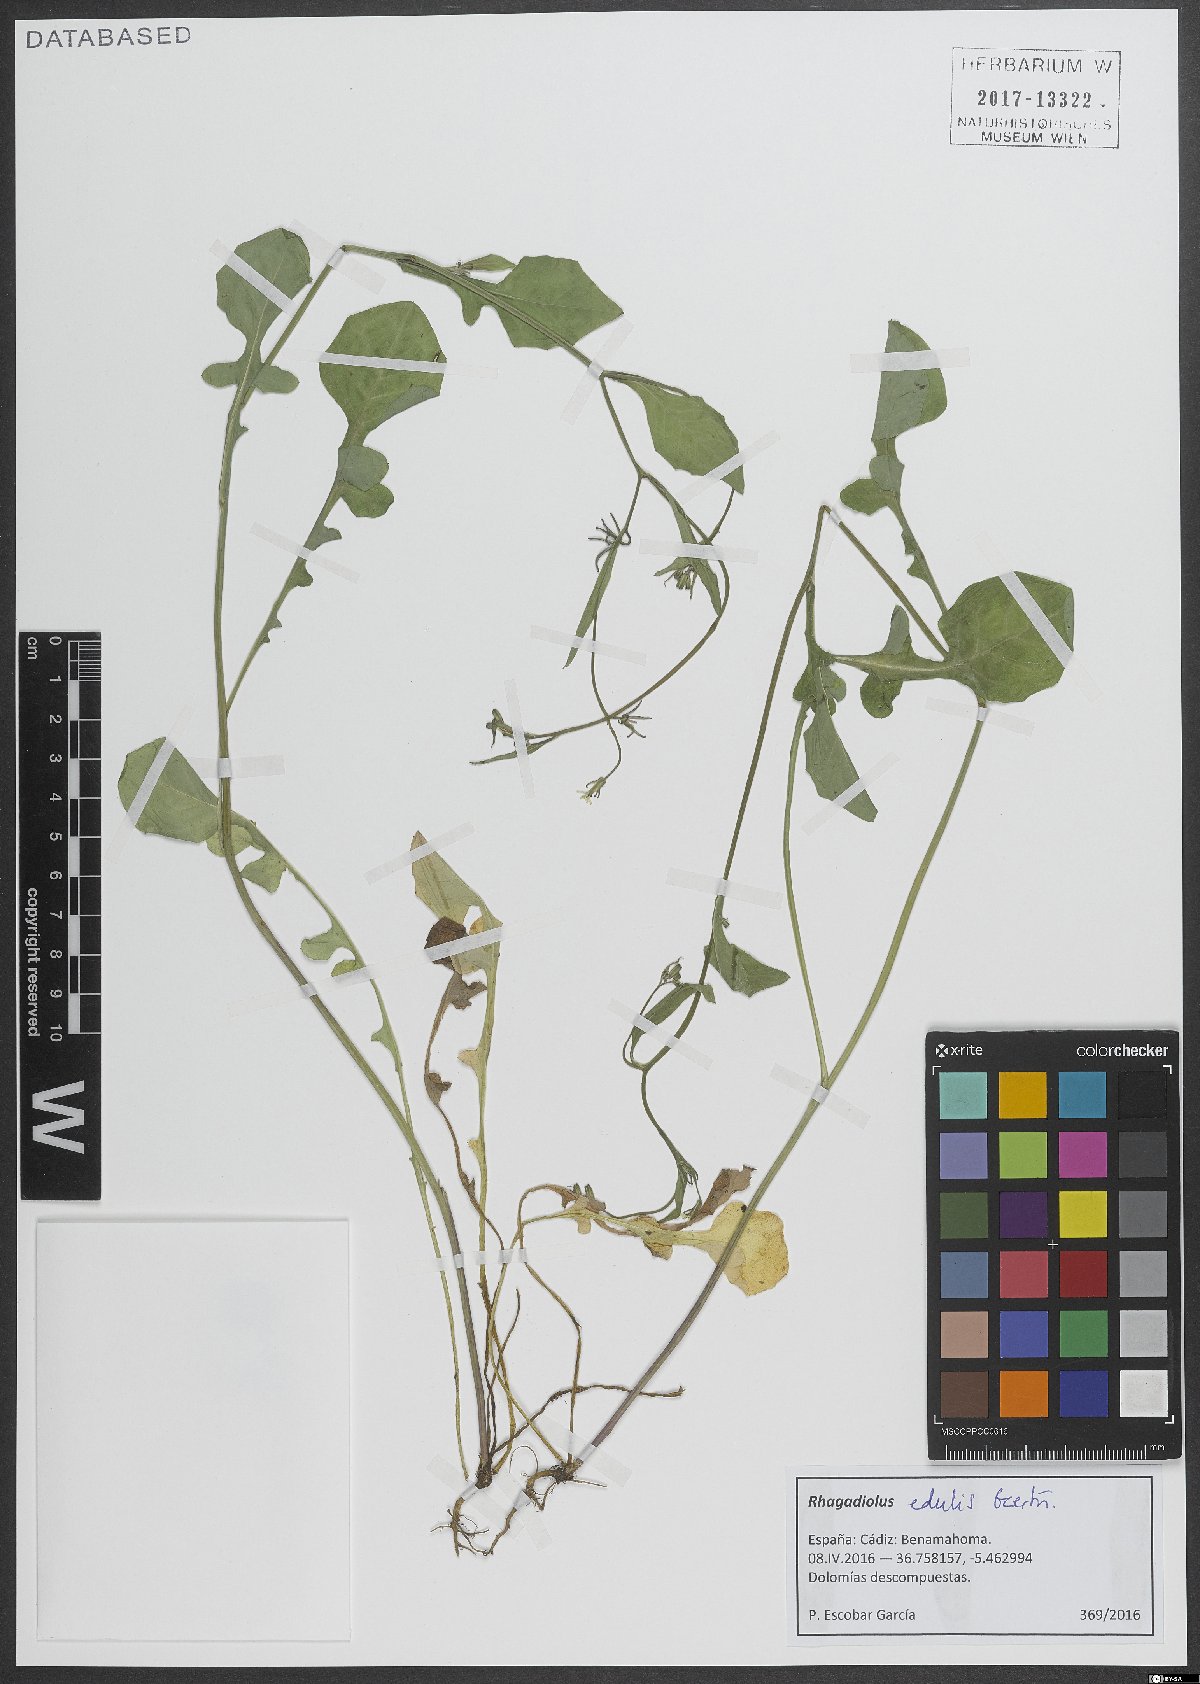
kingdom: Plantae
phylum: Tracheophyta
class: Magnoliopsida
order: Asterales
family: Asteraceae
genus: Rhagadiolus
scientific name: Rhagadiolus edulis
